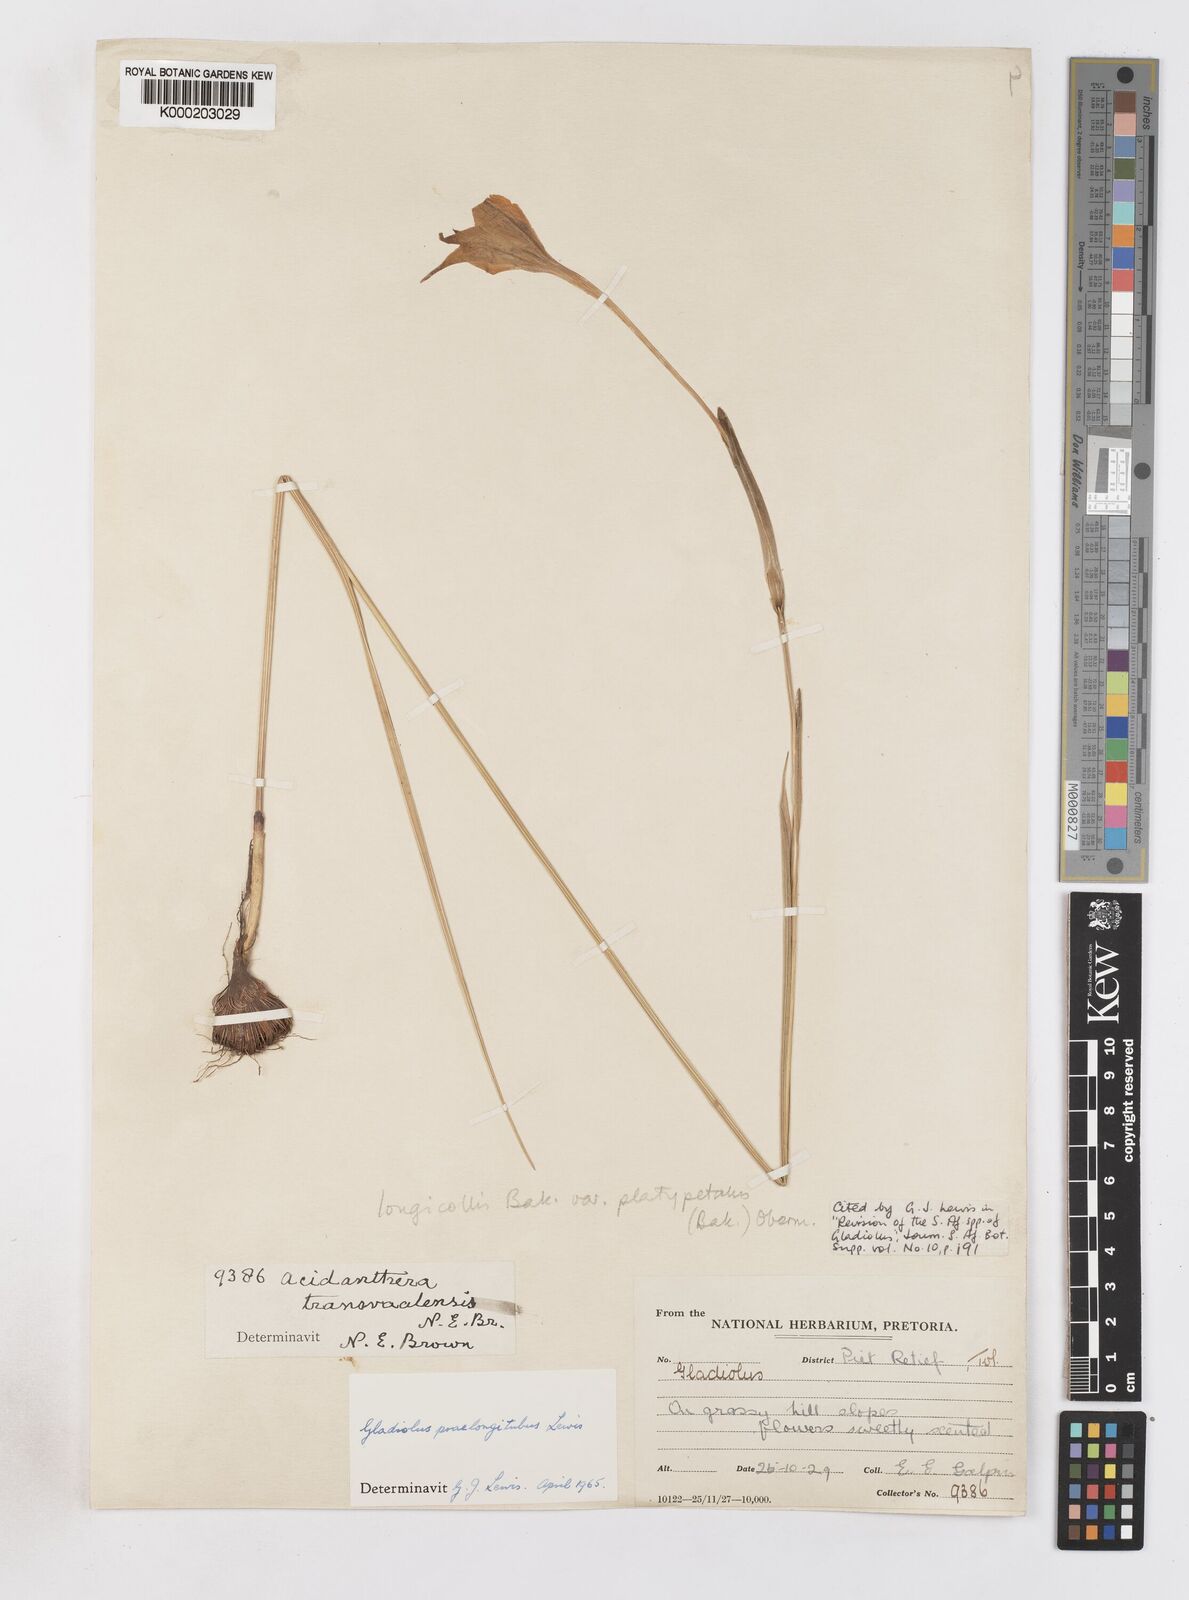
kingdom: Plantae
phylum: Tracheophyta
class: Liliopsida
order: Asparagales
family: Iridaceae
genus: Gladiolus
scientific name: Gladiolus longicollis
